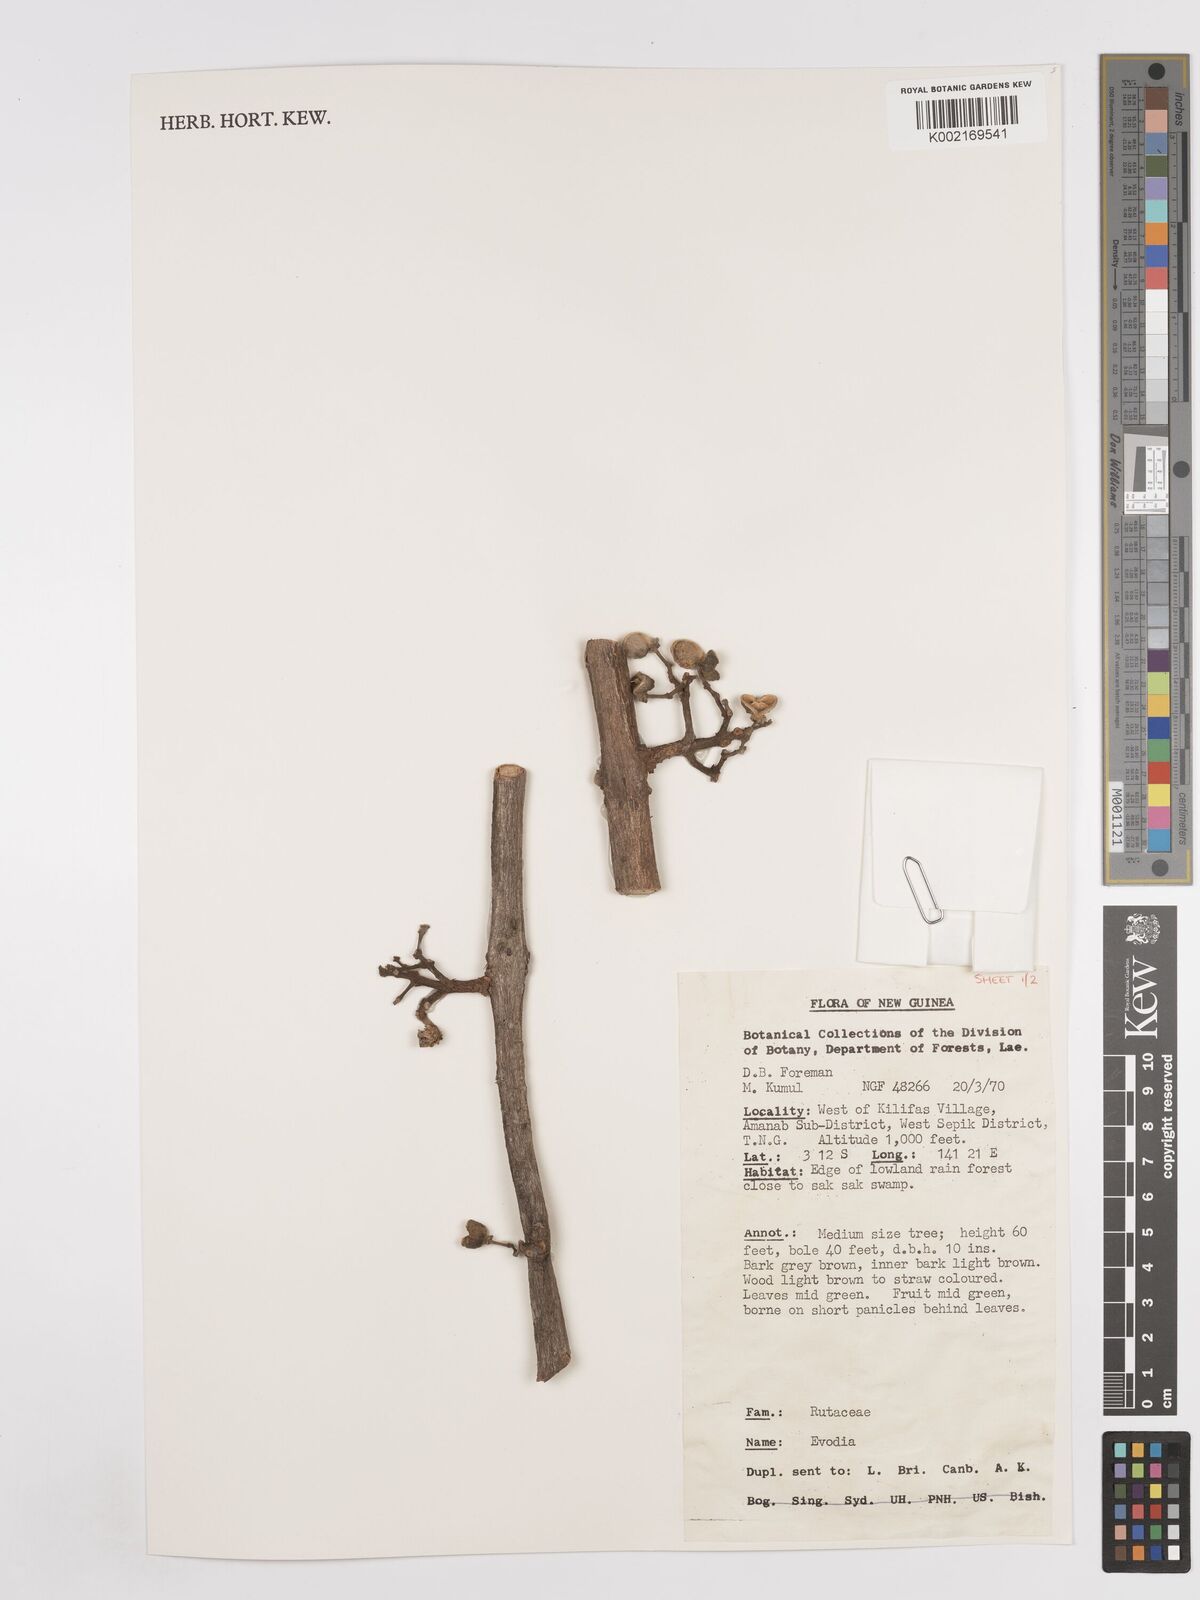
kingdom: Plantae
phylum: Tracheophyta
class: Magnoliopsida
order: Sapindales
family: Rutaceae
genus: Euodia
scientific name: Euodia
